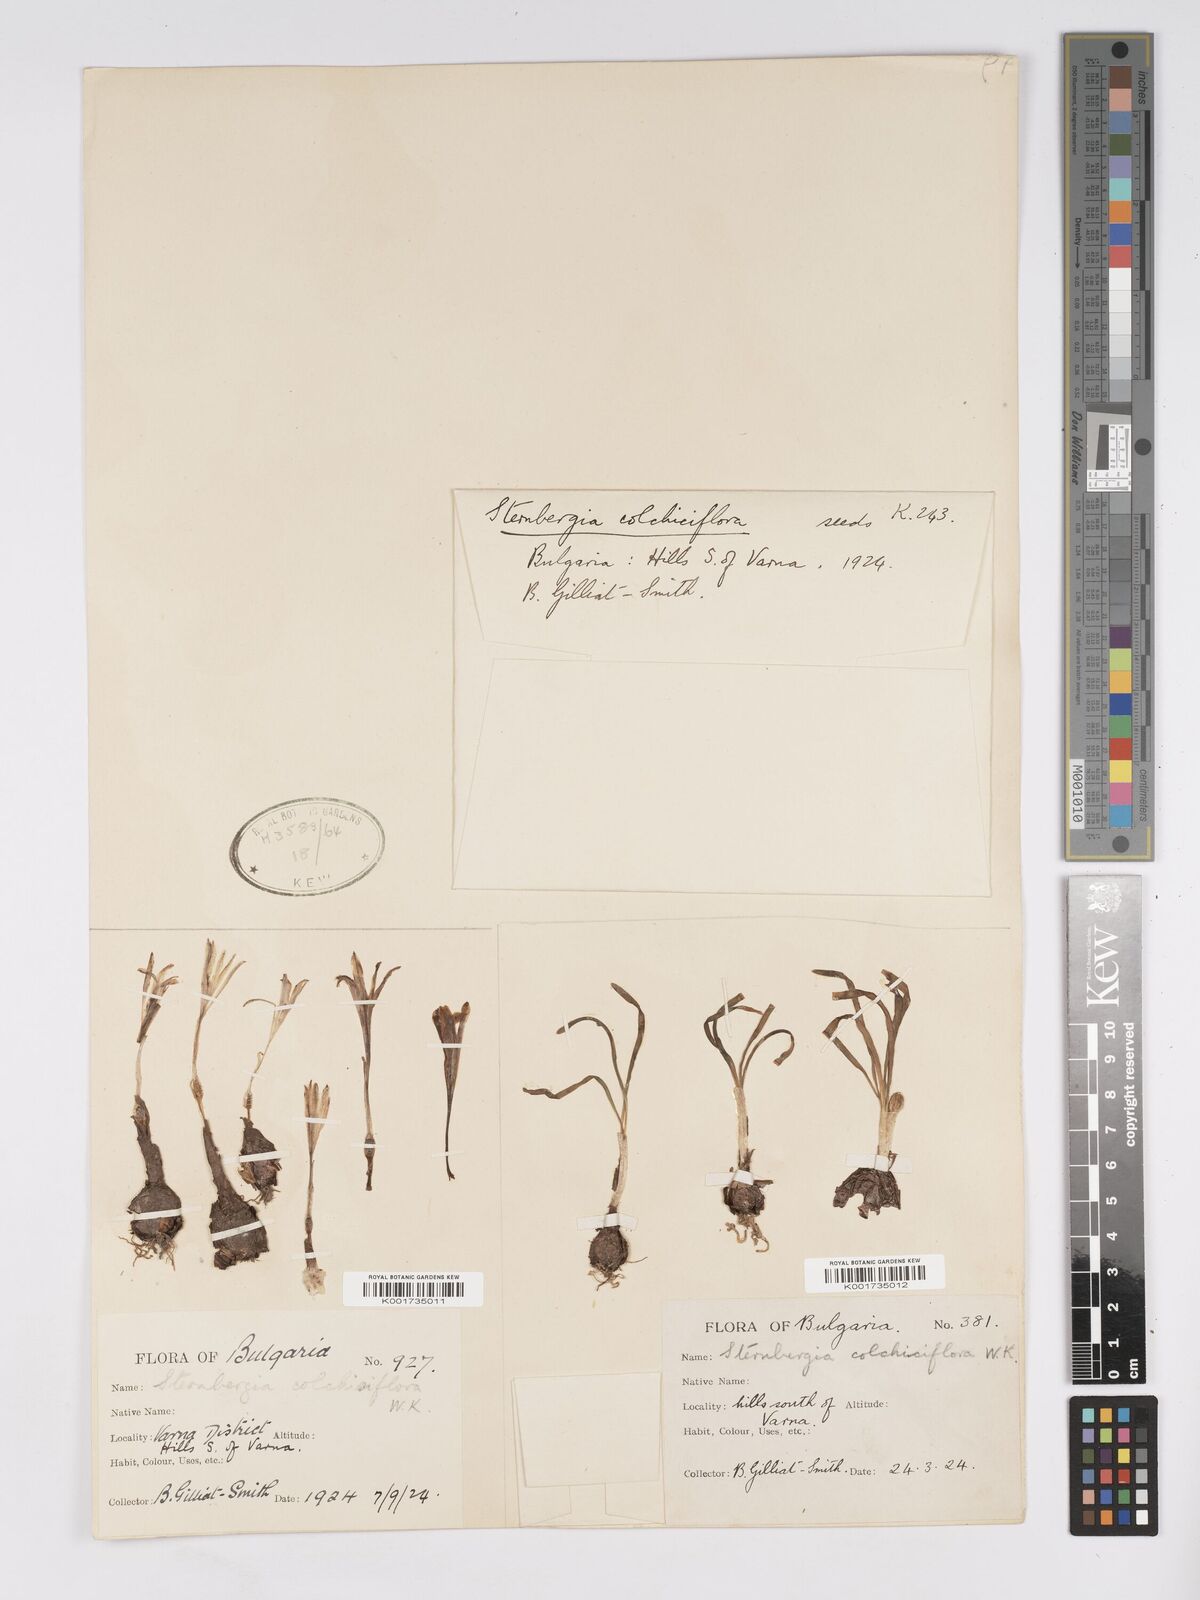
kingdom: Plantae
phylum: Tracheophyta
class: Liliopsida
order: Asparagales
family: Amaryllidaceae
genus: Sternbergia
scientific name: Sternbergia colchiciflora
